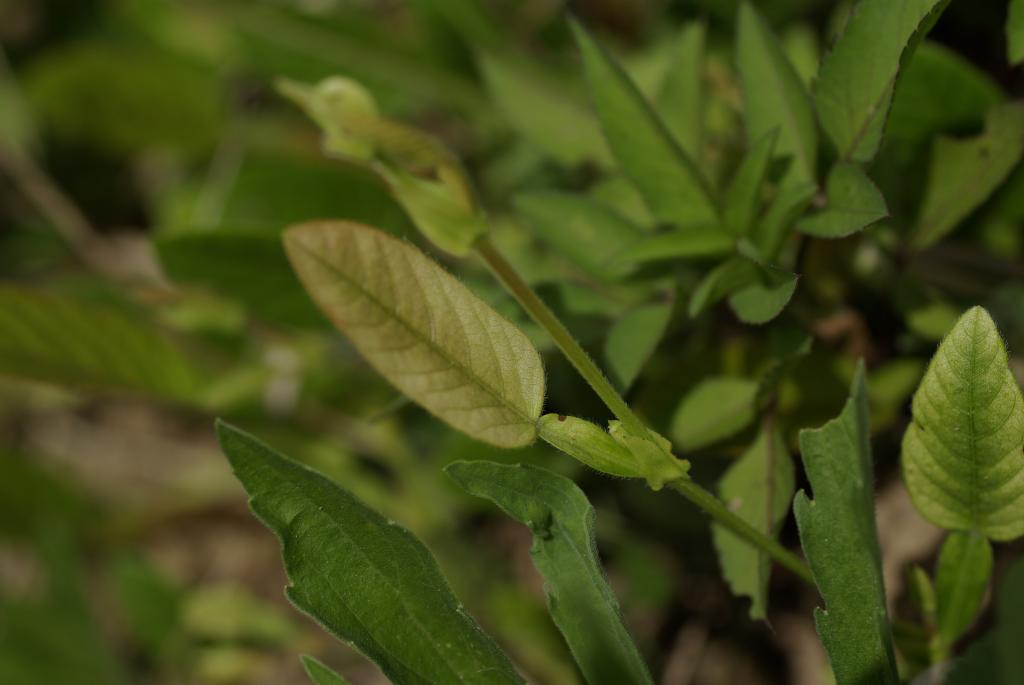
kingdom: Plantae
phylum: Tracheophyta
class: Magnoliopsida
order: Fabales
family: Fabaceae
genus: Tadehagi
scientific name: Tadehagi pseudotriquetrum
